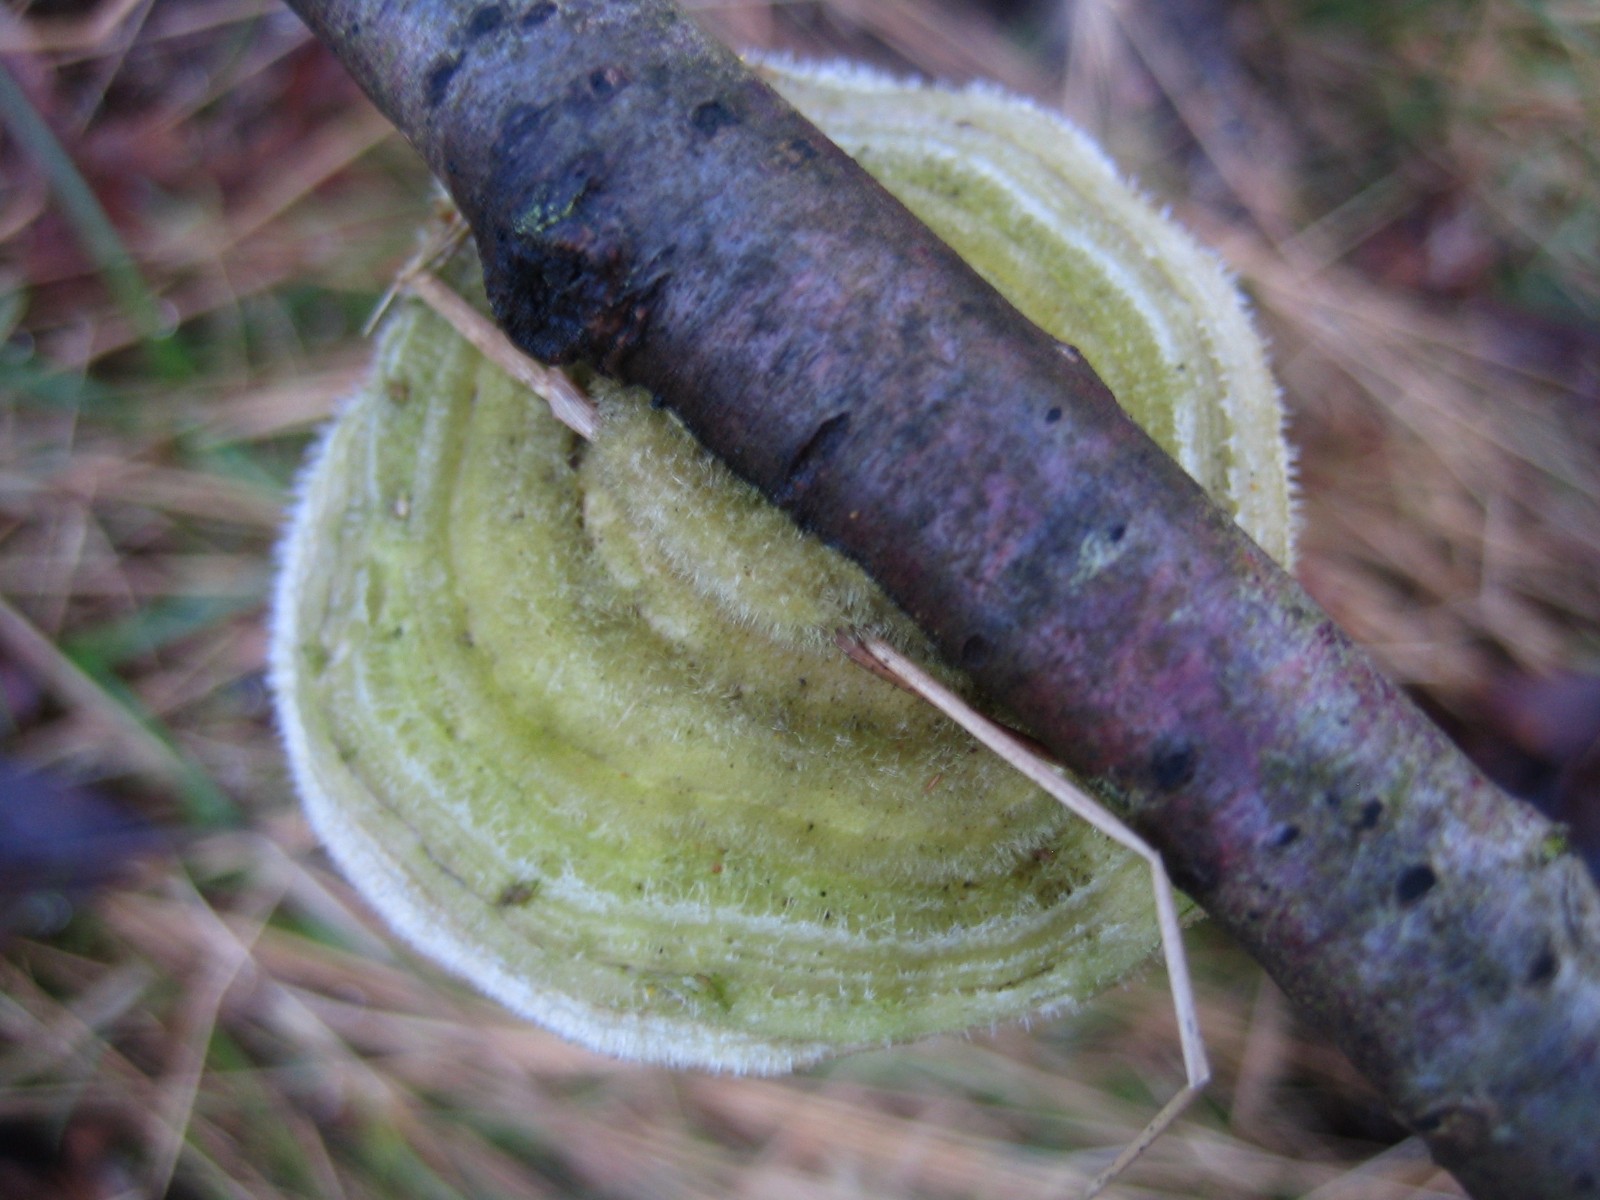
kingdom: Fungi
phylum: Basidiomycota
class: Agaricomycetes
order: Polyporales
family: Polyporaceae
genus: Trametes
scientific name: Trametes hirsuta
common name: håret læderporesvamp
